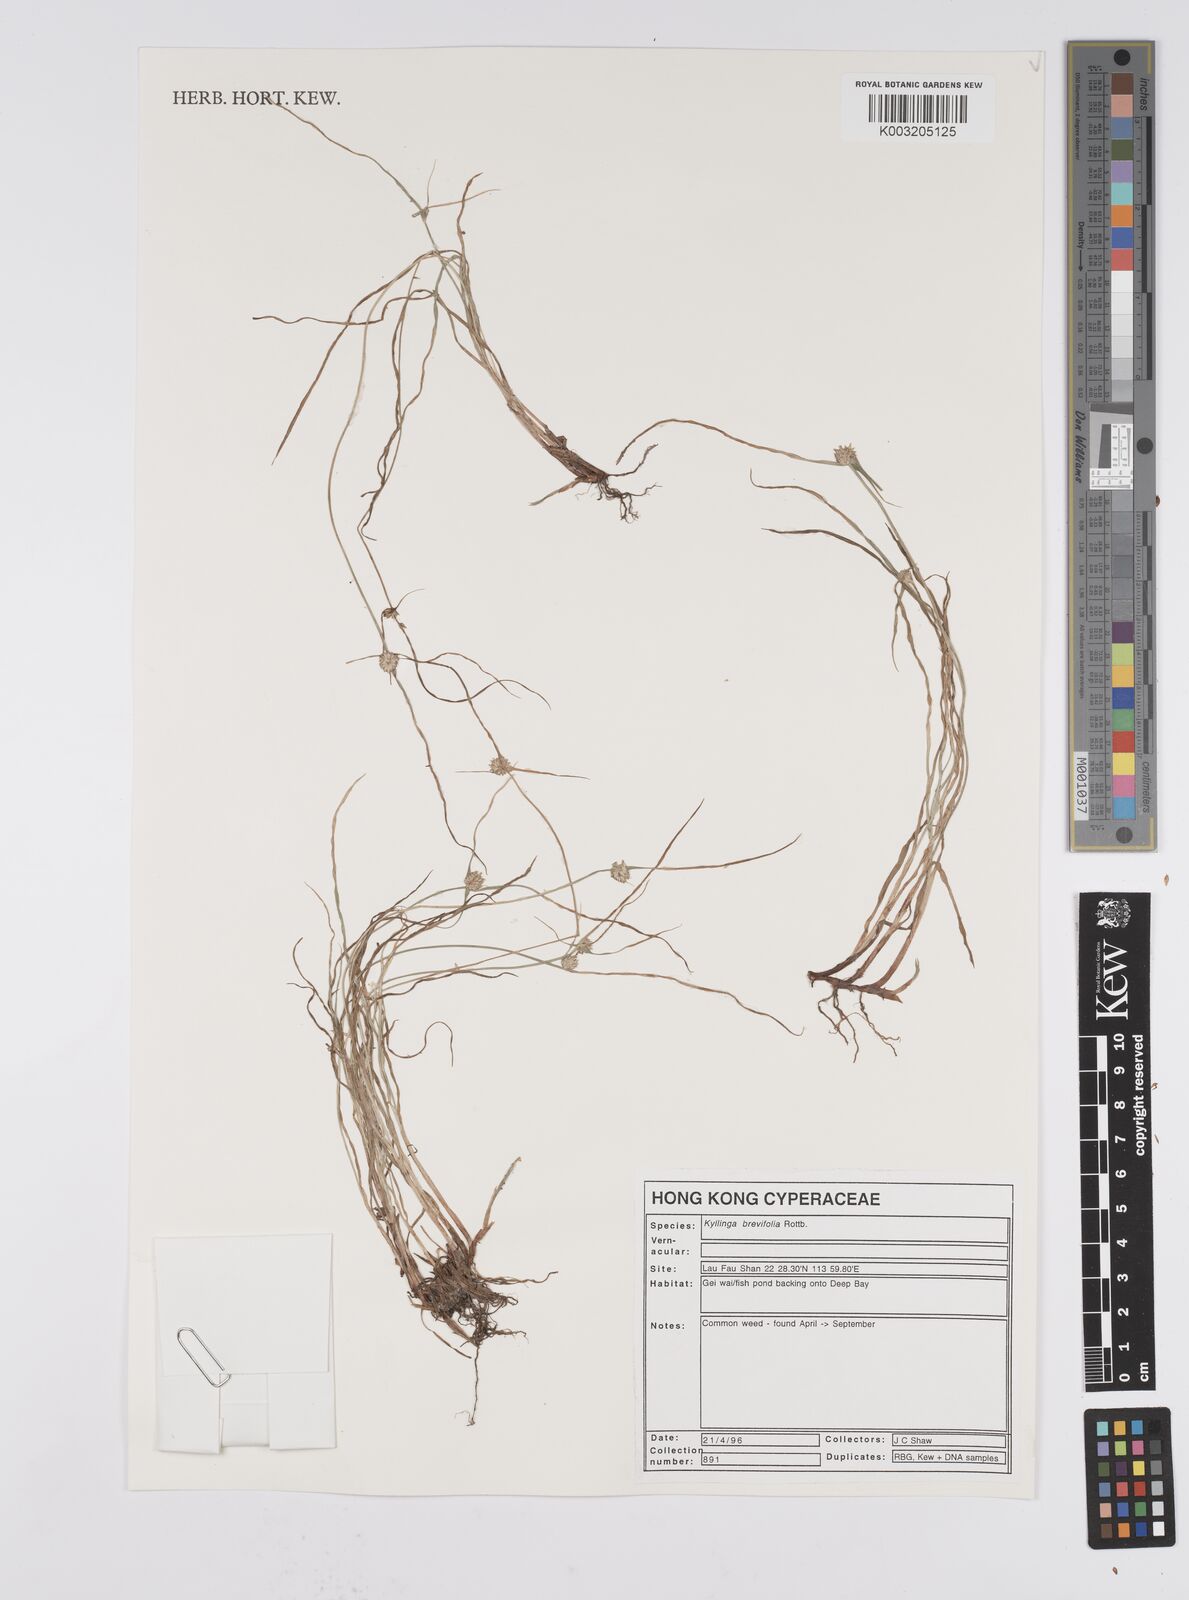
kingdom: Plantae
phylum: Tracheophyta
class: Liliopsida
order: Poales
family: Cyperaceae
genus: Cyperus
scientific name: Cyperus brevifolius
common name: Globe kyllinga
